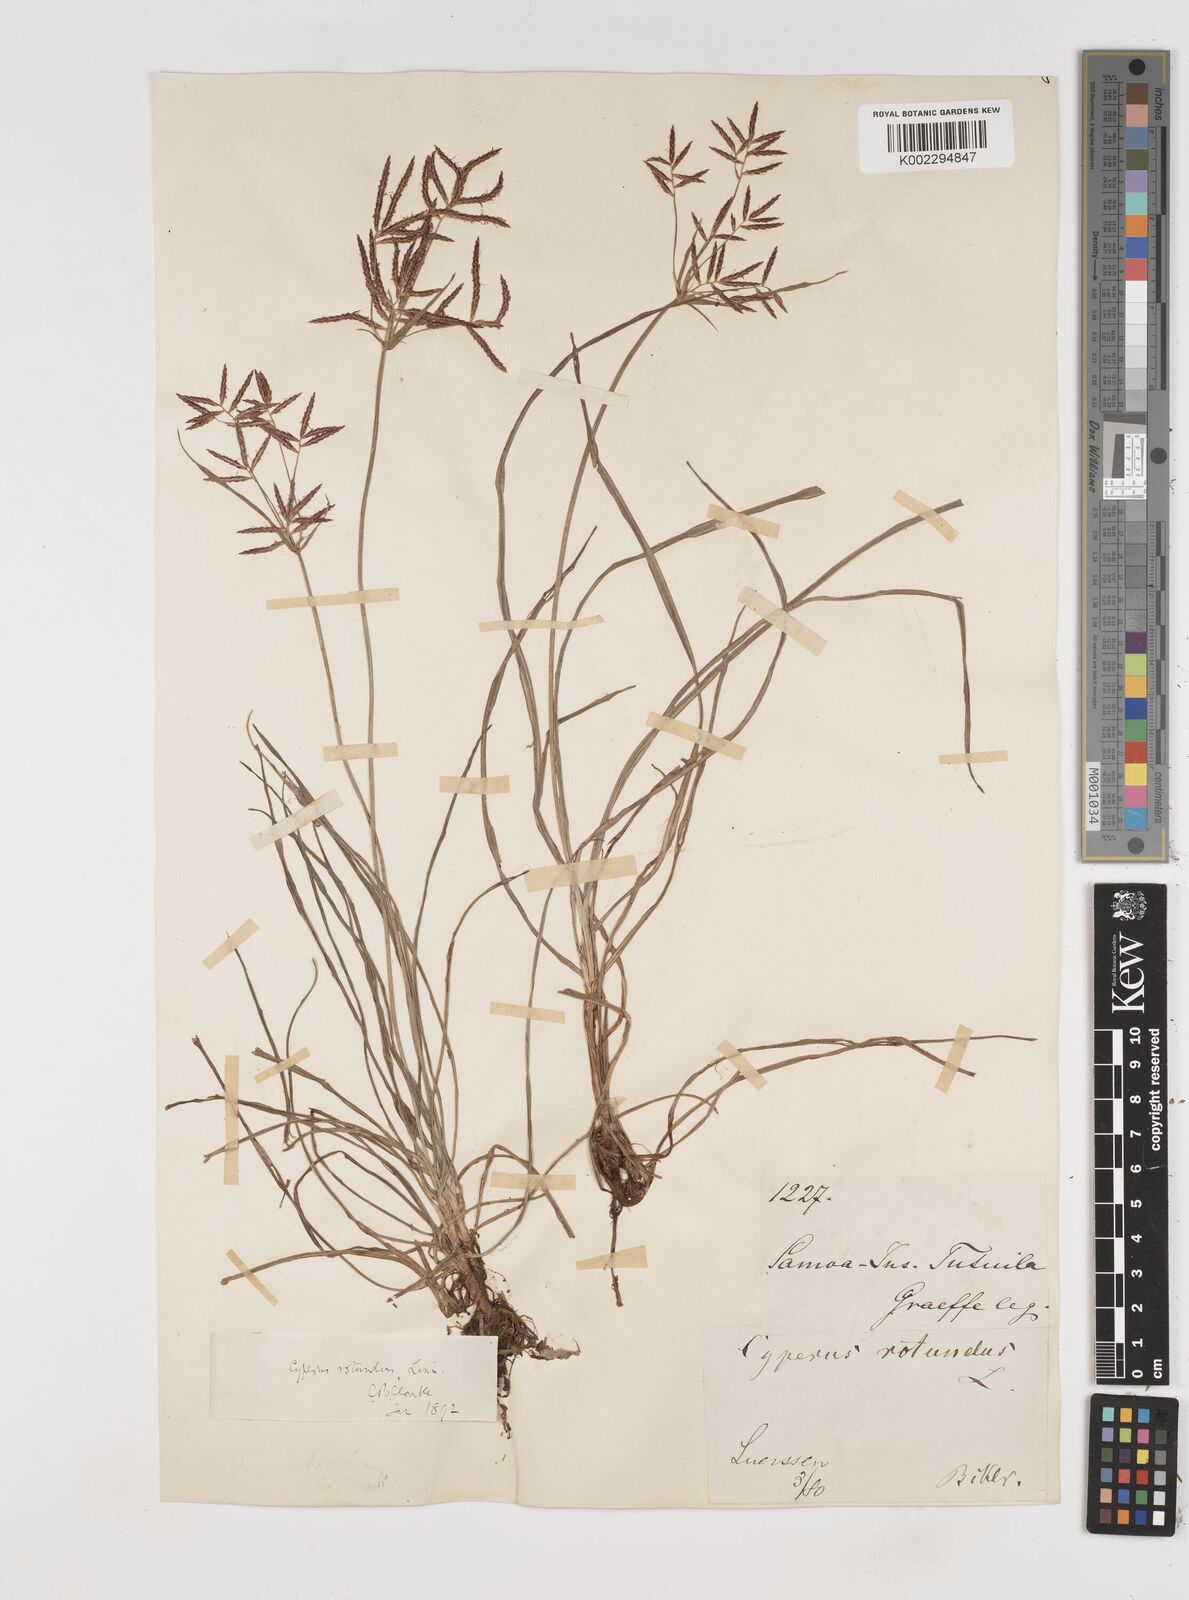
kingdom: Plantae
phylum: Tracheophyta
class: Liliopsida
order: Poales
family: Cyperaceae
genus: Cyperus
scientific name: Cyperus rotundus
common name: Nutgrass
